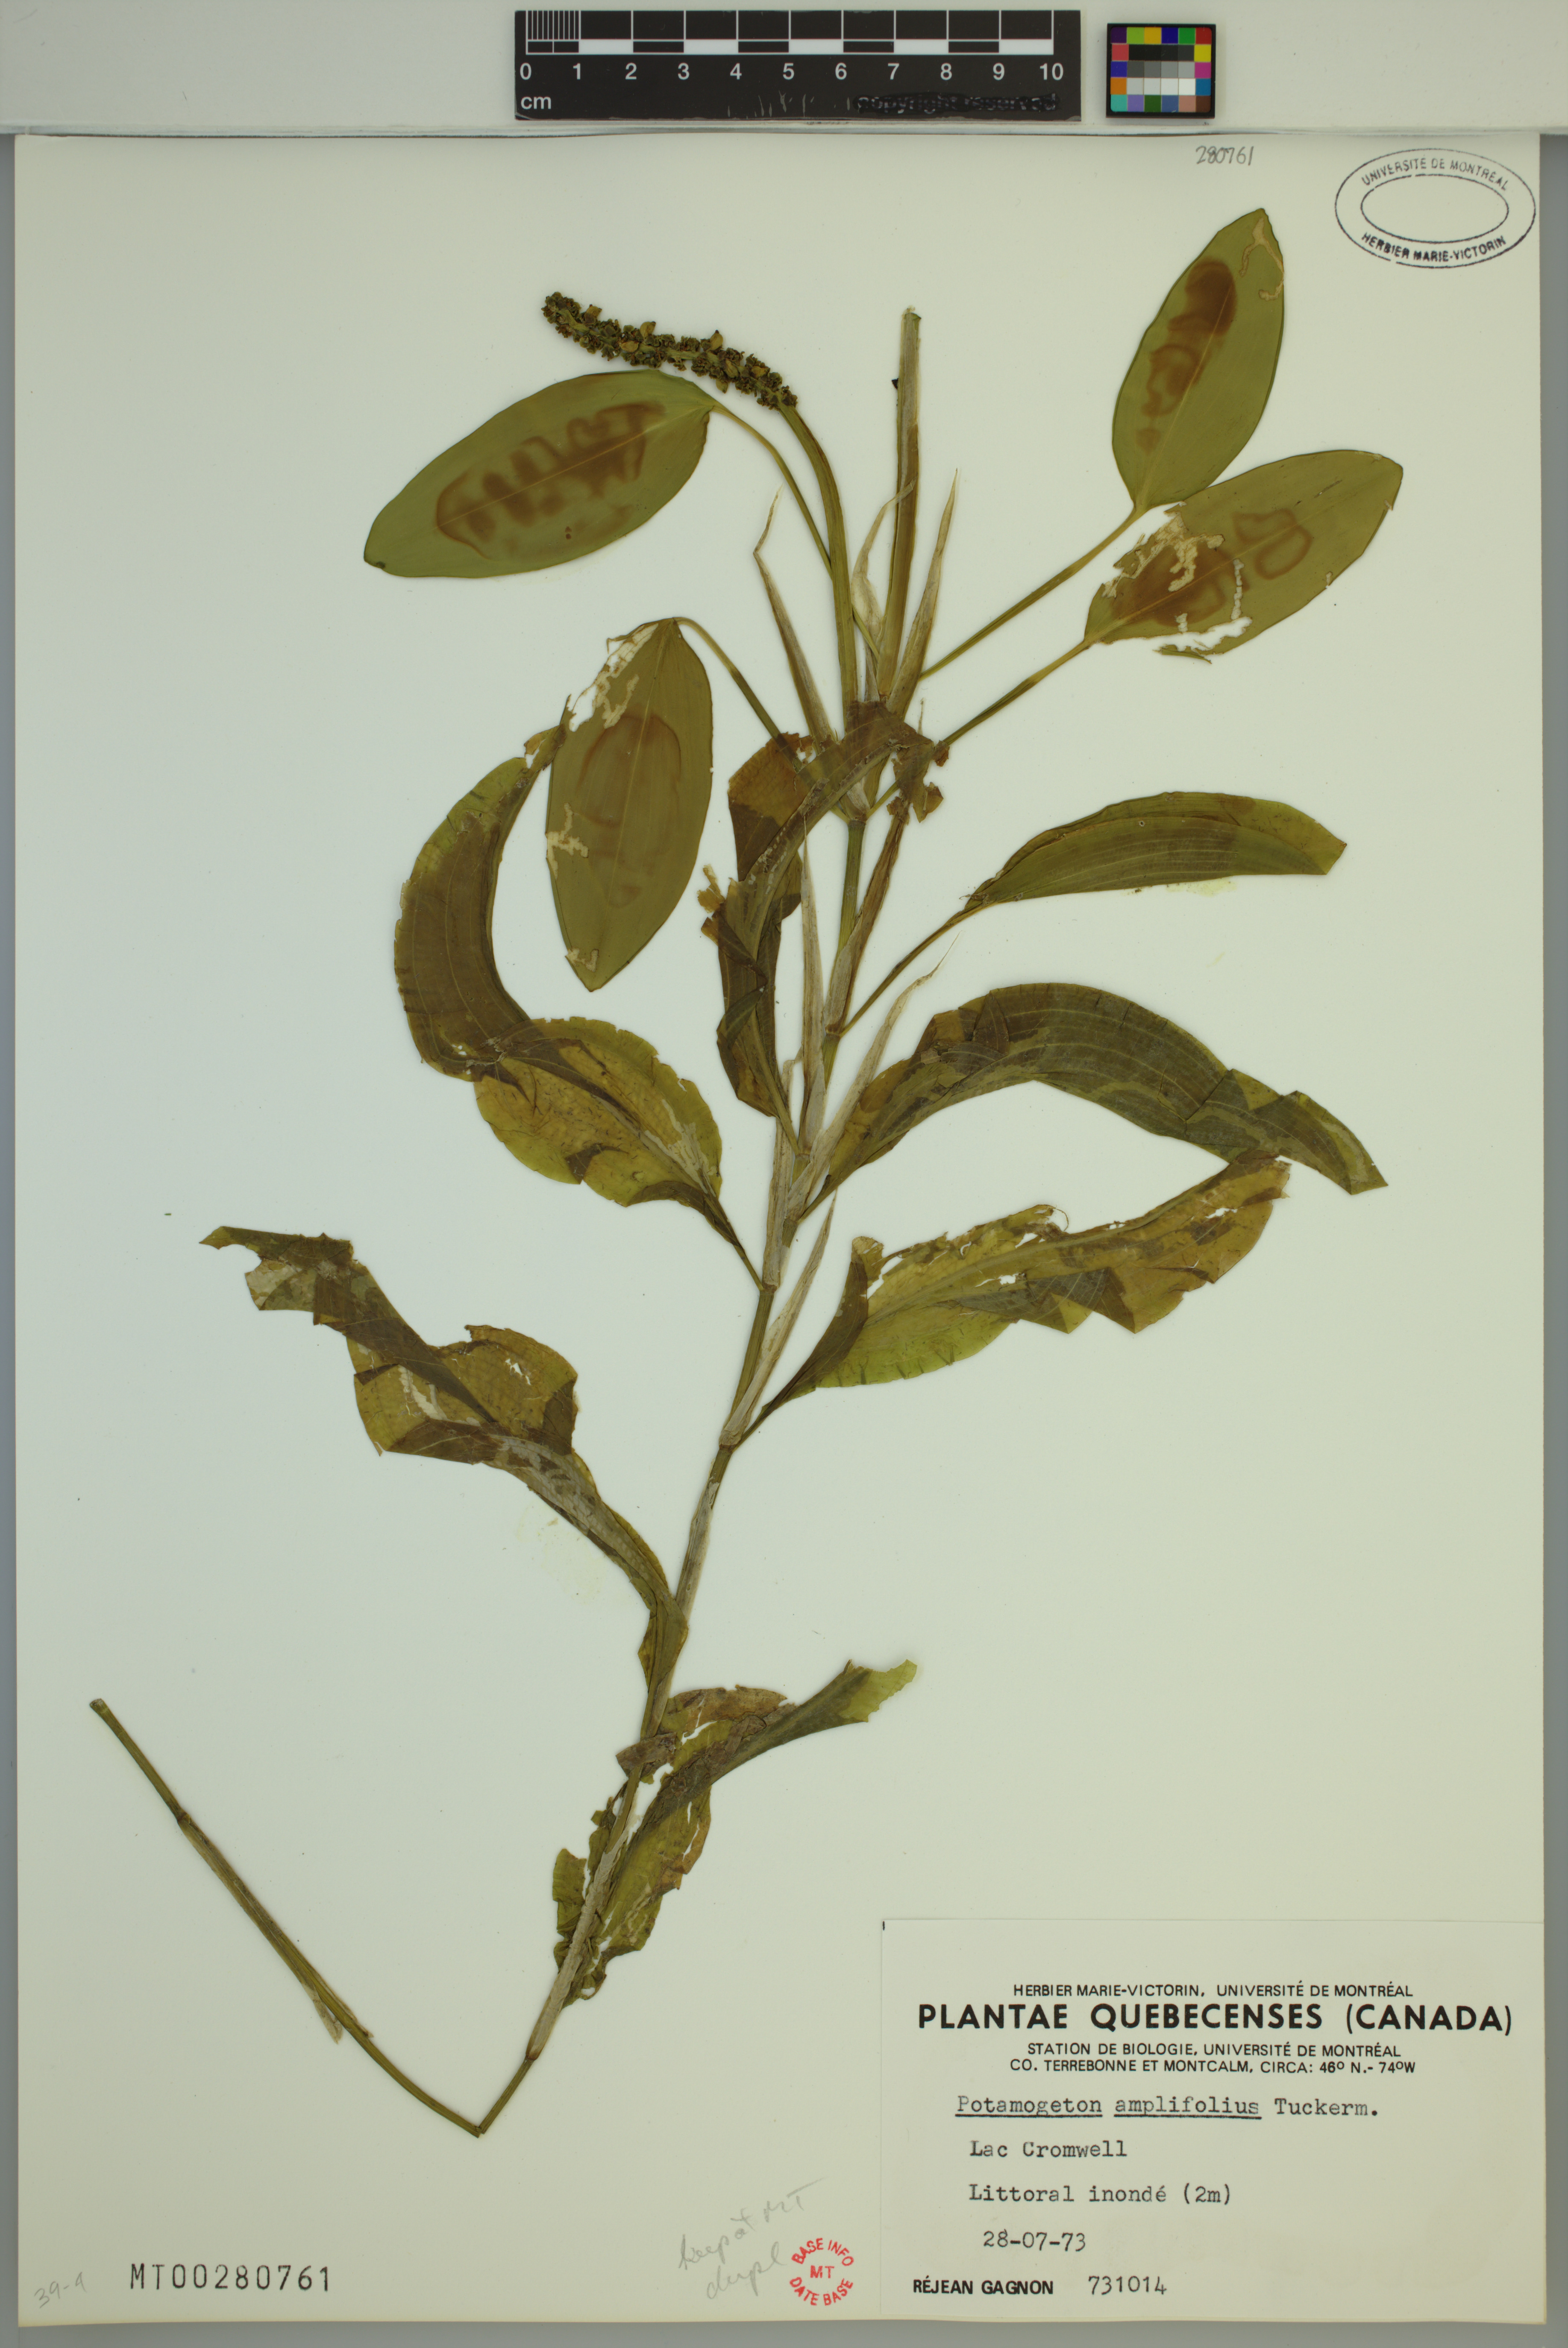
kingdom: Plantae
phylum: Tracheophyta
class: Liliopsida
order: Alismatales
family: Potamogetonaceae
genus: Potamogeton
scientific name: Potamogeton amplifolius
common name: Broad-leaved pondweed
